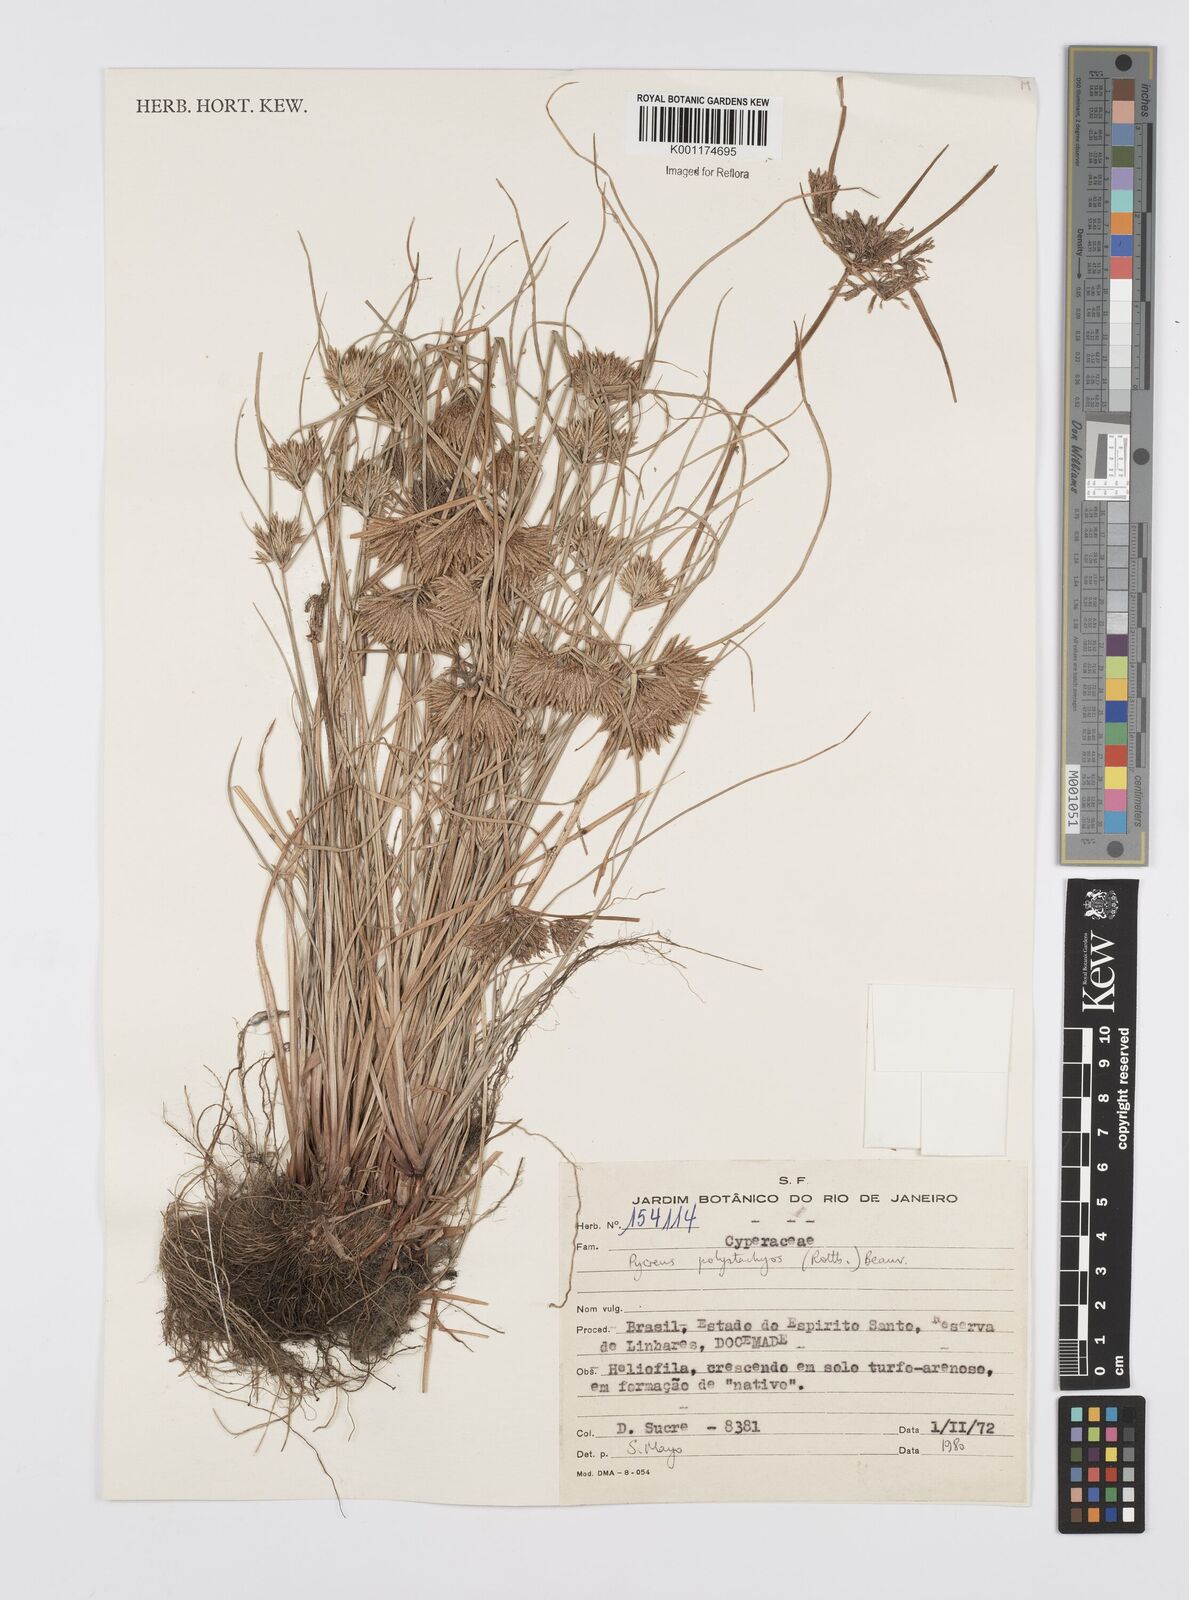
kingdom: Plantae
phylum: Tracheophyta
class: Liliopsida
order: Poales
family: Cyperaceae
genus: Cyperus
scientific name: Cyperus polystachyos
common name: Bunchy flat sedge
